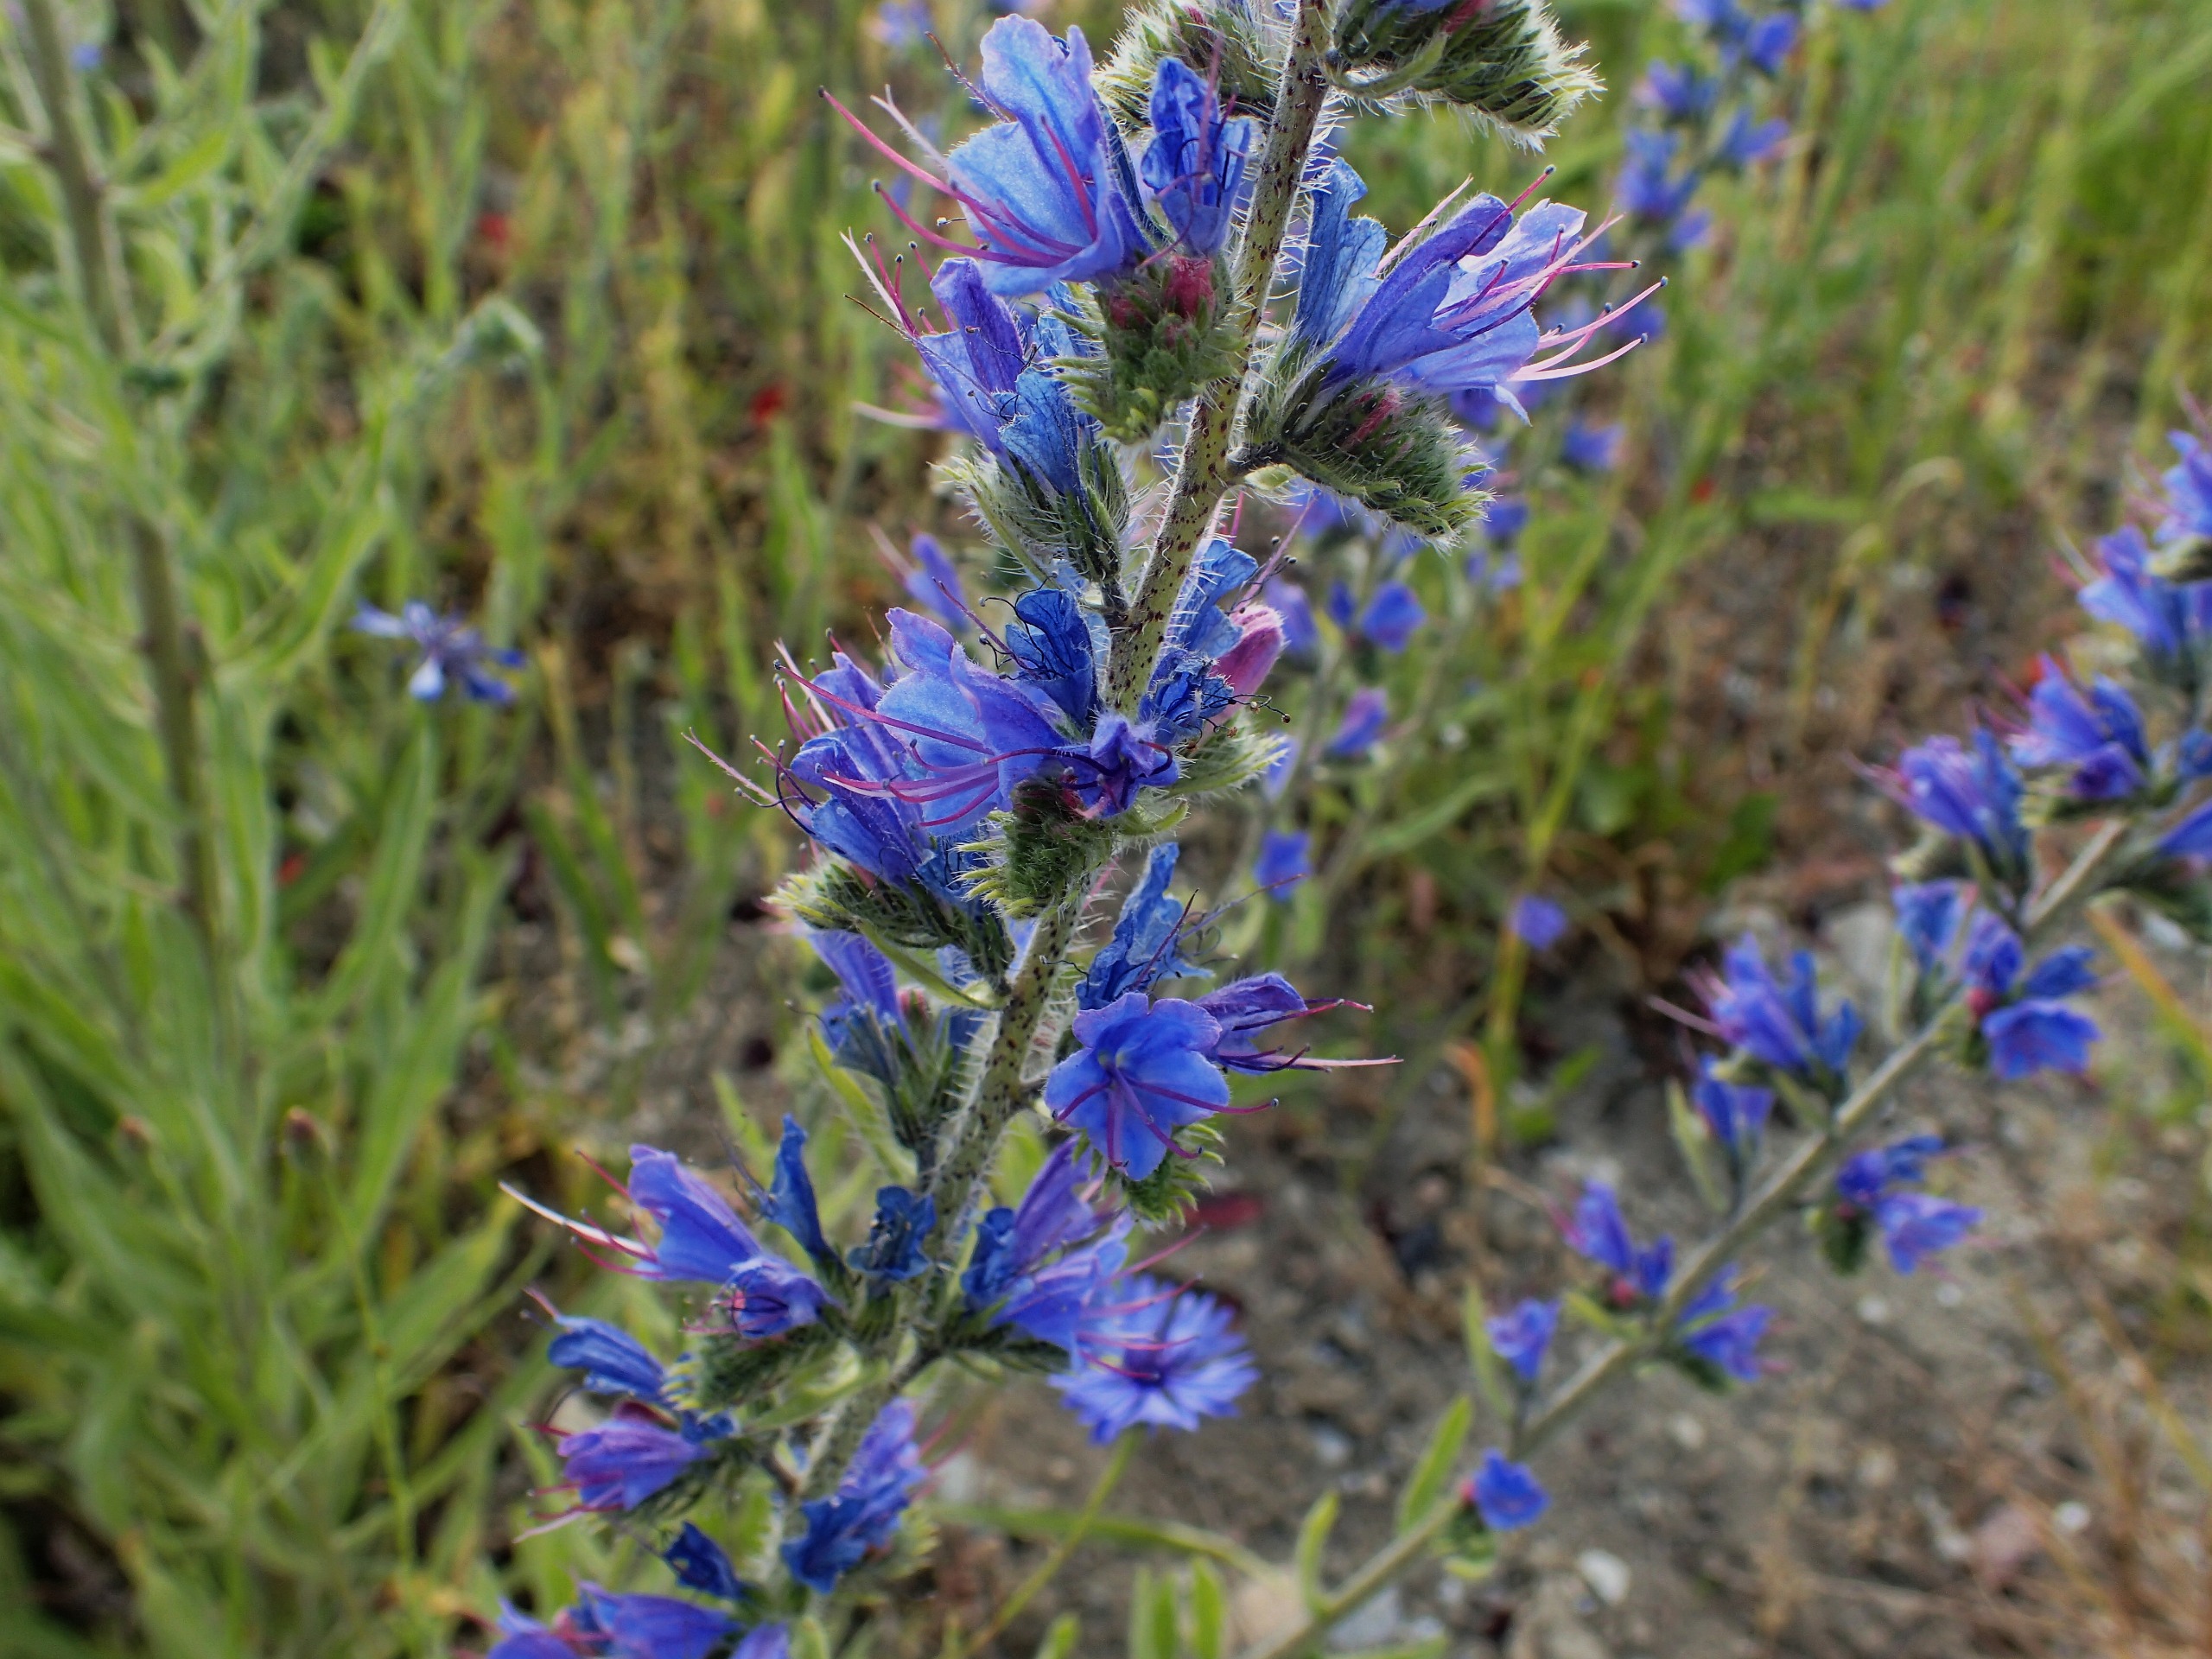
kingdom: Plantae
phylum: Tracheophyta
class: Magnoliopsida
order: Boraginales
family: Boraginaceae
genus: Echium
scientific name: Echium vulgare
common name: Slangehoved
